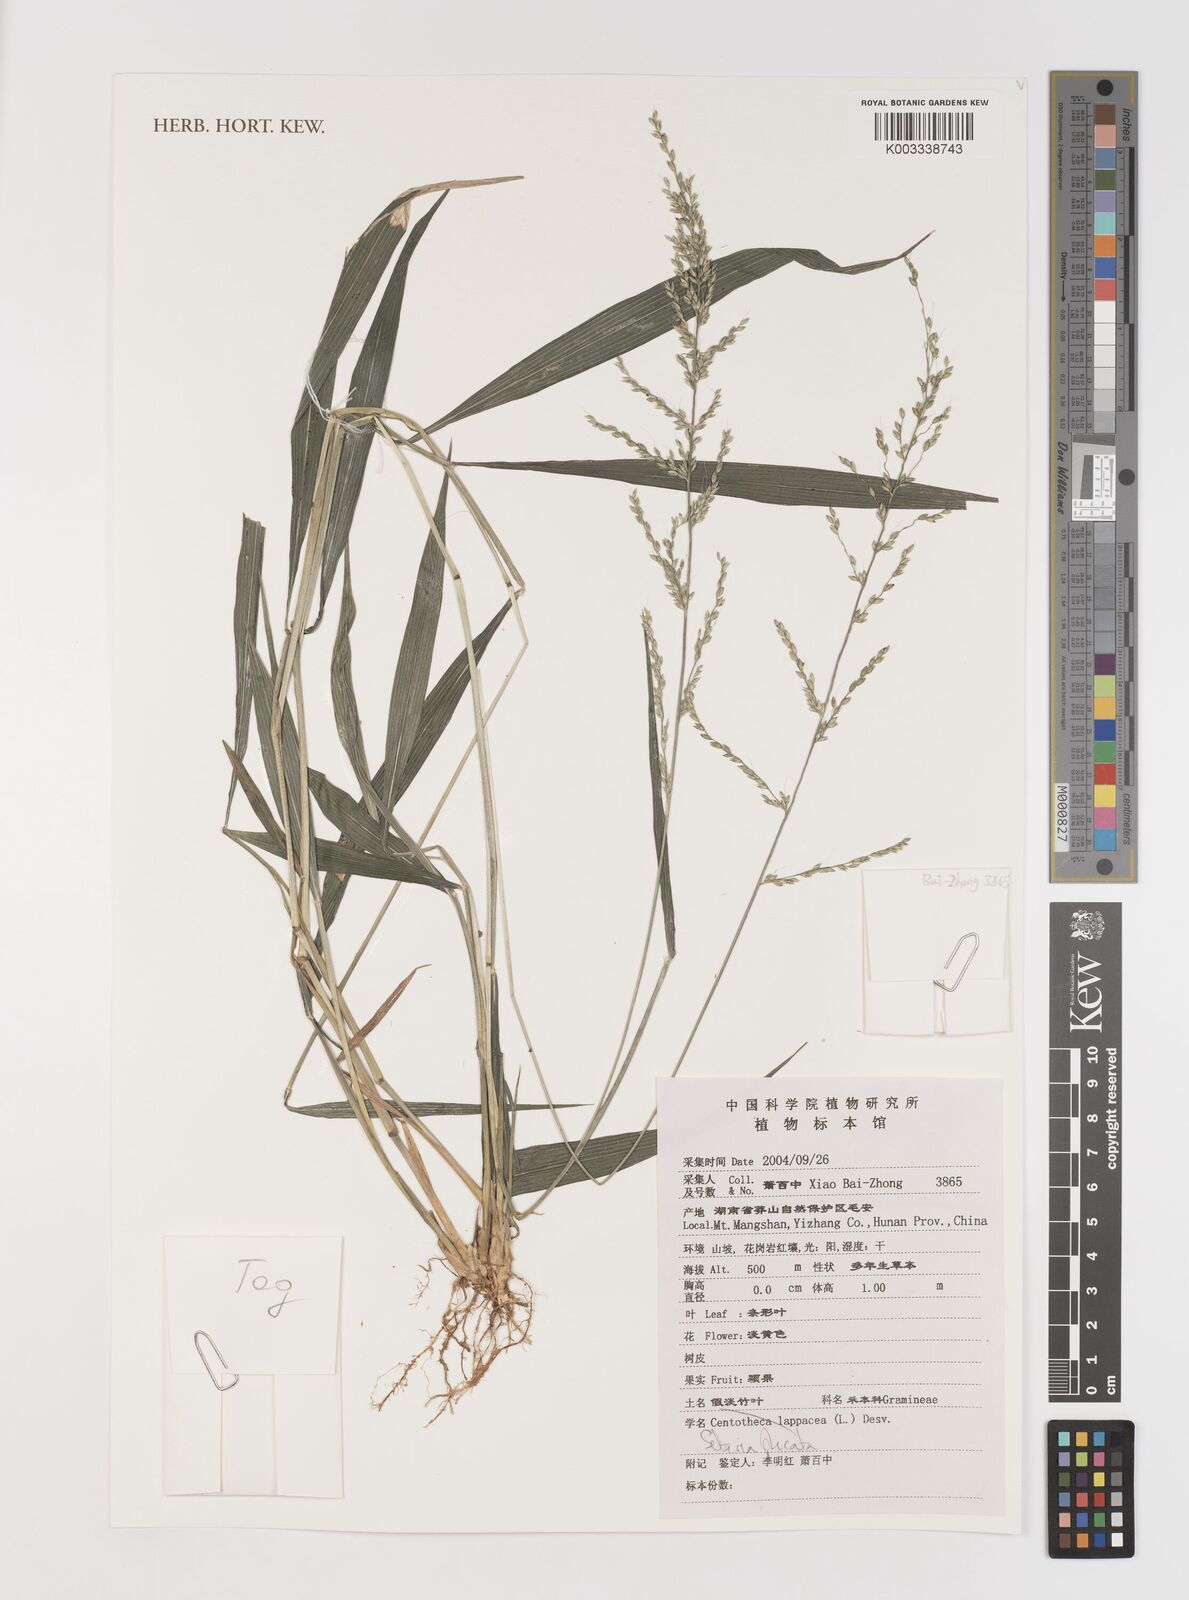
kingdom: Plantae
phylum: Tracheophyta
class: Liliopsida
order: Poales
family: Poaceae
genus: Setaria
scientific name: Setaria plicata
